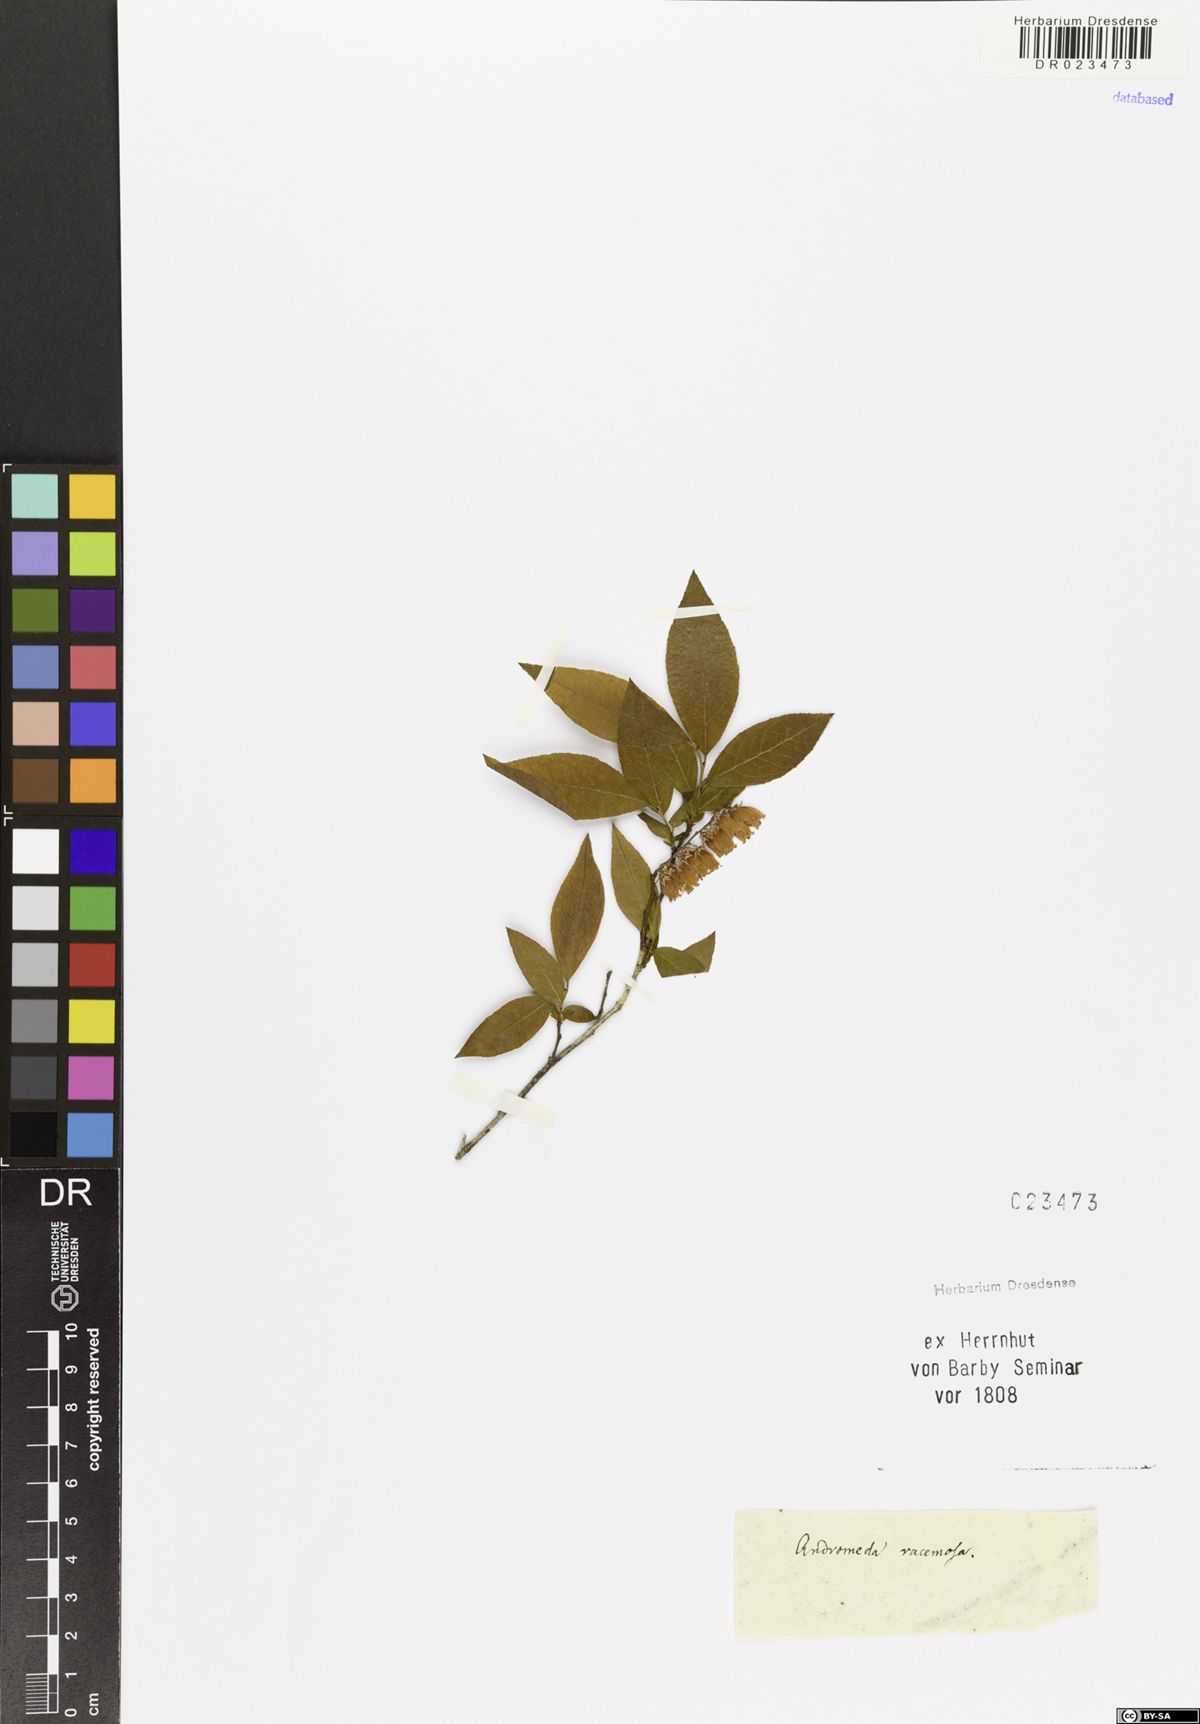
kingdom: Plantae
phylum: Tracheophyta
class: Magnoliopsida
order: Ericales
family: Ericaceae
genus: Eubotrys
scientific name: Eubotrys racemosa
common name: Fetterbush
